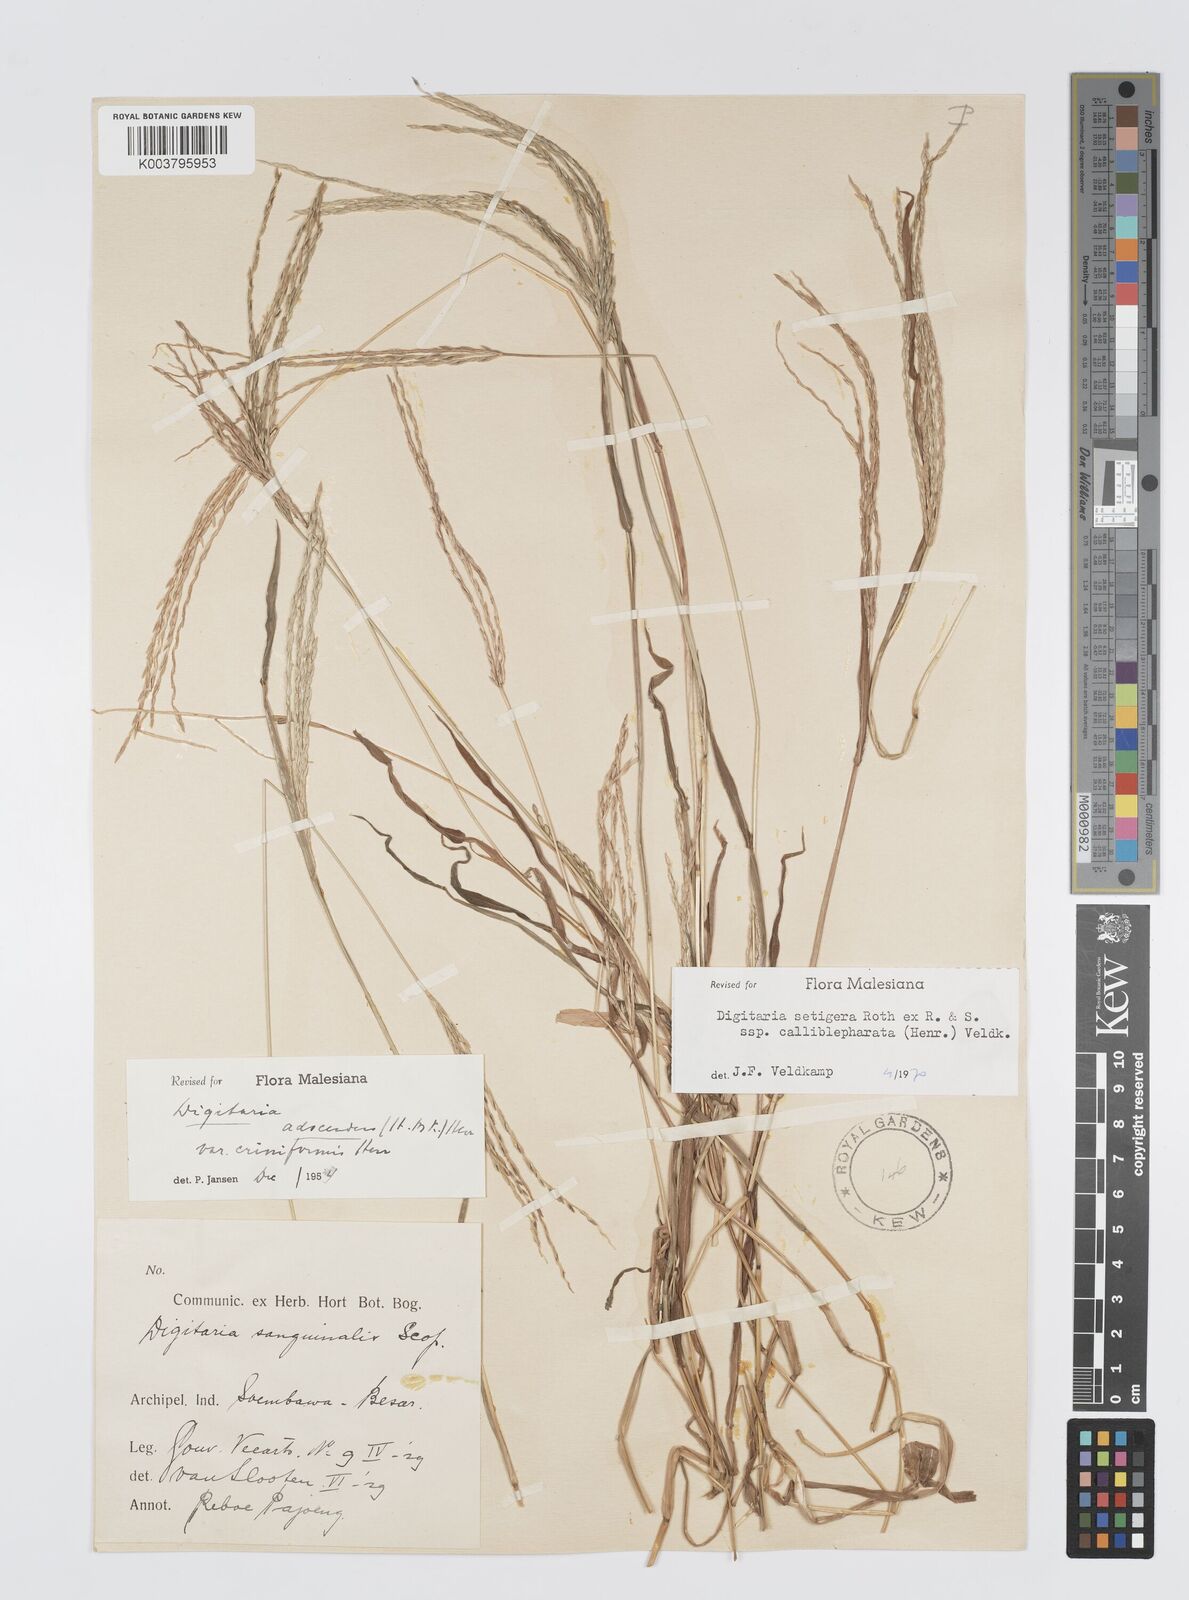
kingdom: Plantae
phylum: Tracheophyta
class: Liliopsida
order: Poales
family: Poaceae
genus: Digitaria
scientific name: Digitaria setigera
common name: East indian crabgrass
